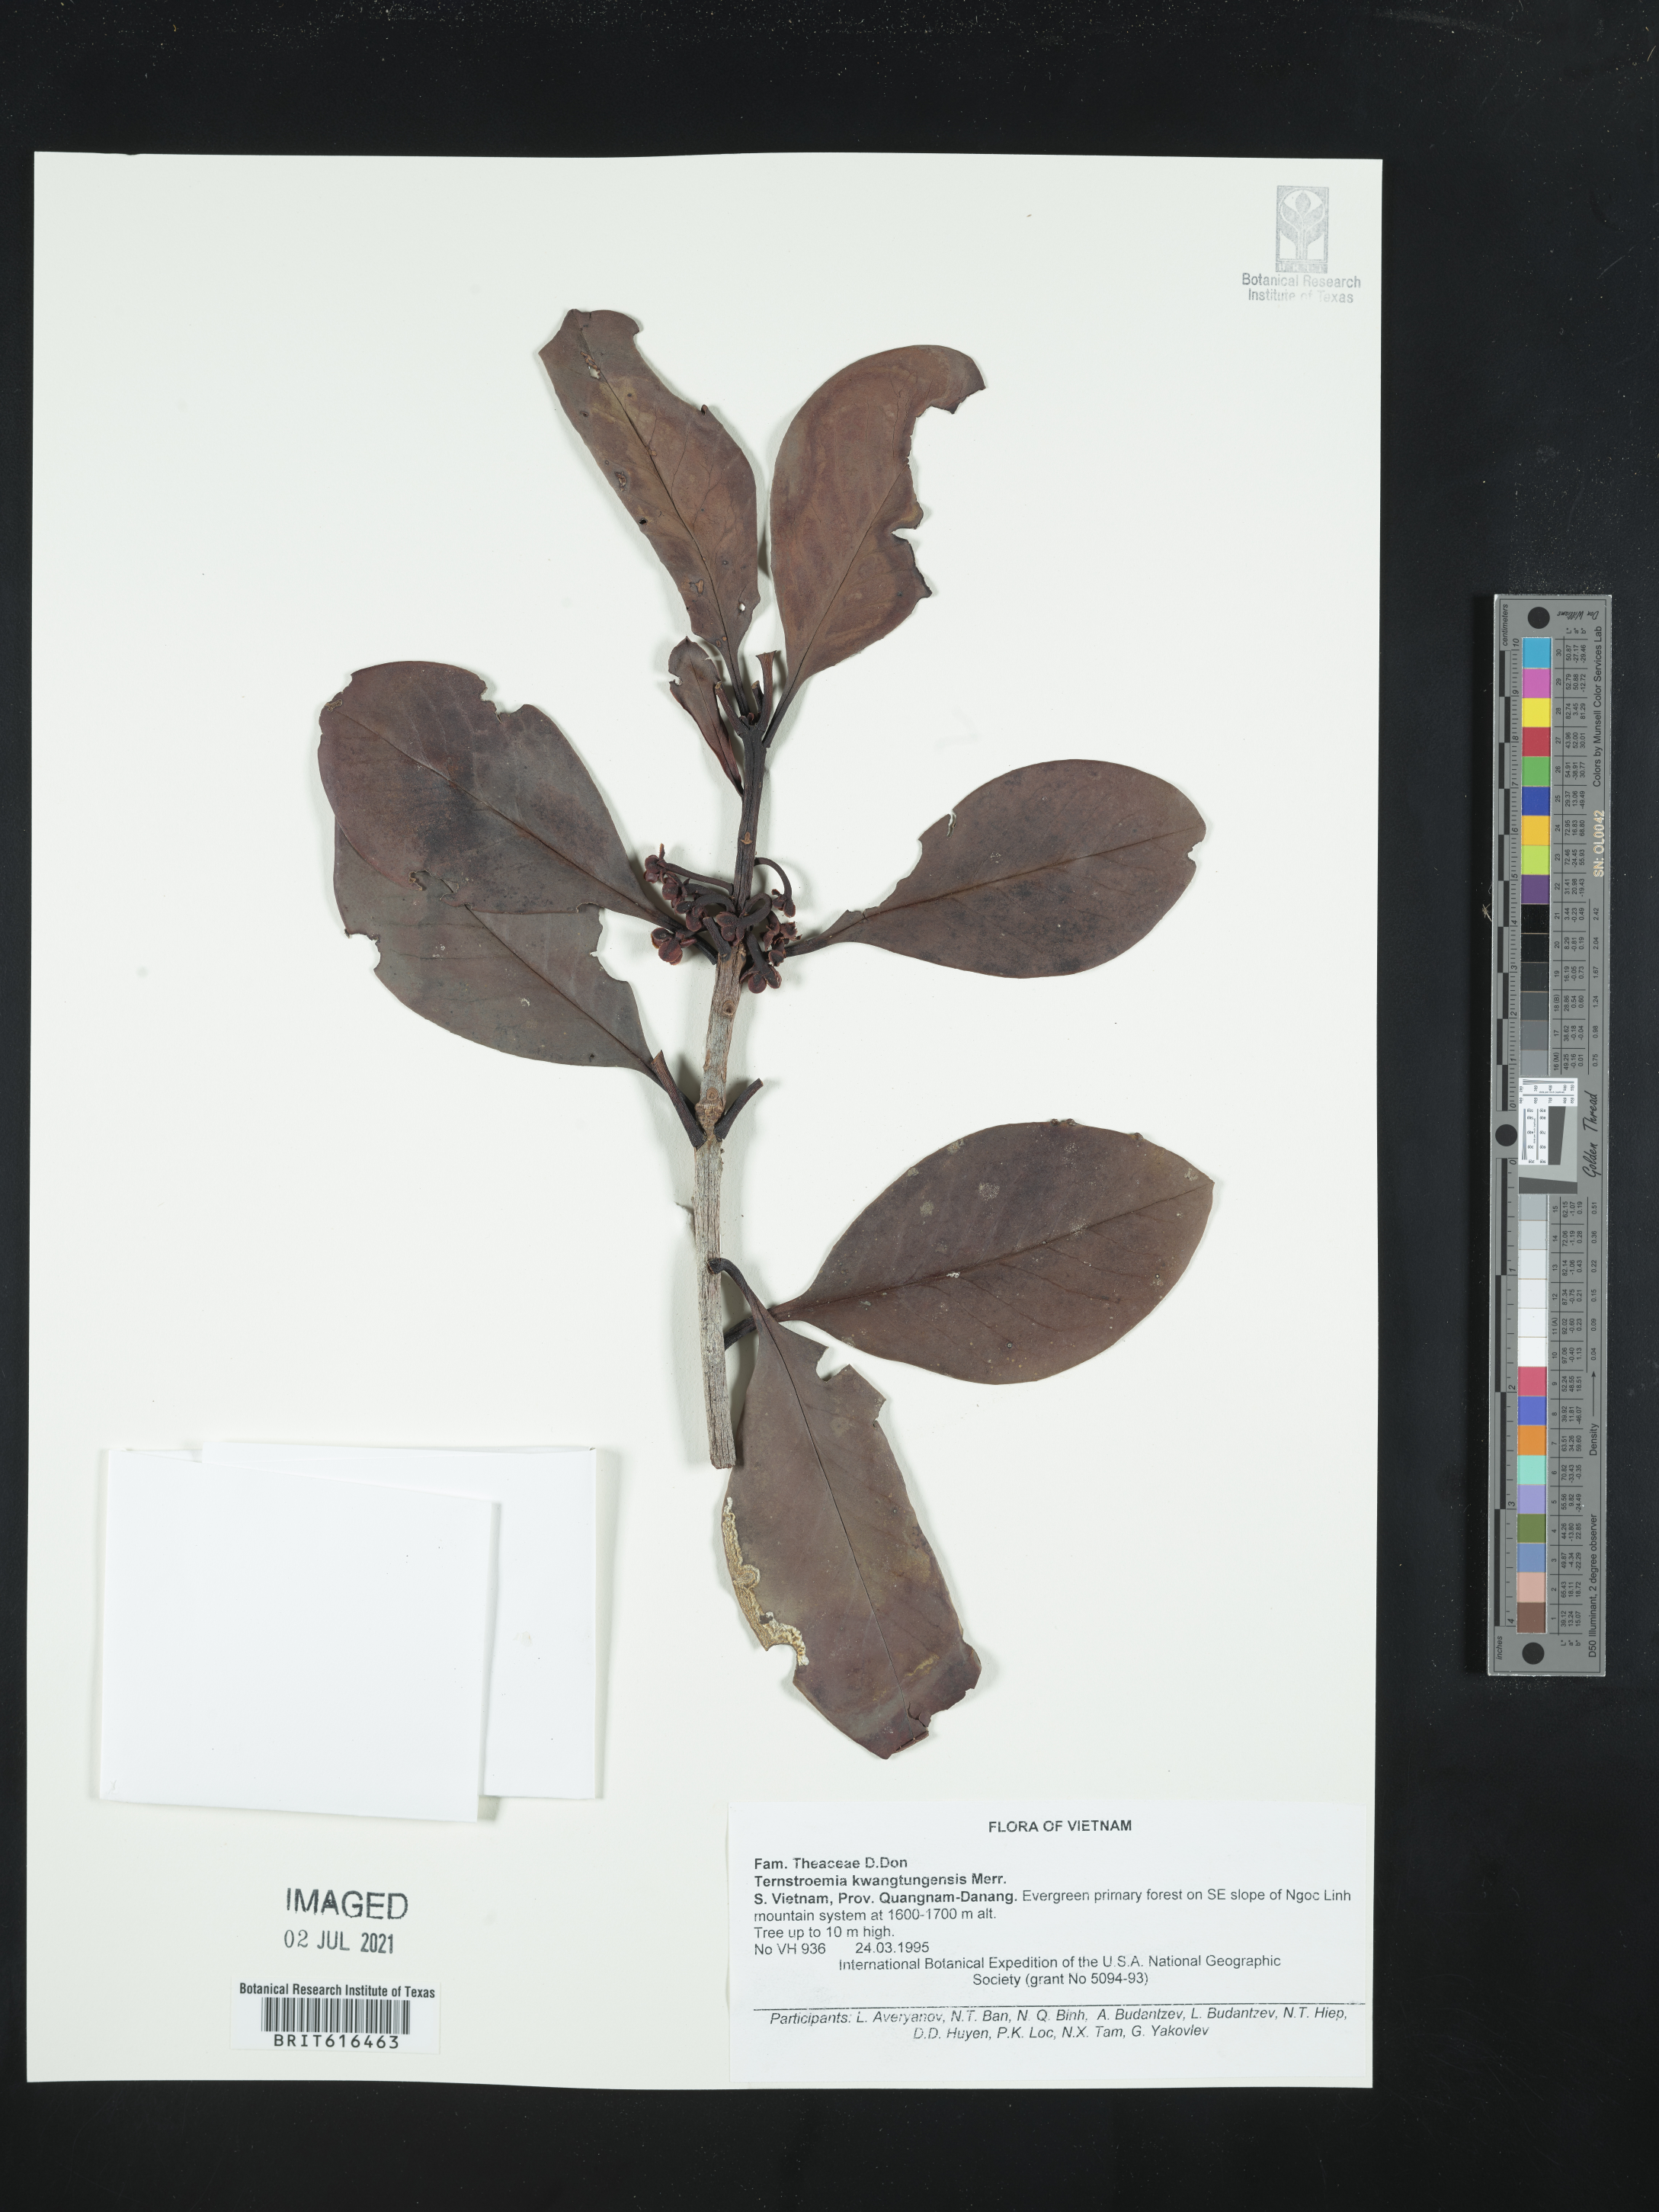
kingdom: Plantae
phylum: Tracheophyta
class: Magnoliopsida
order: Ericales
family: Pentaphylacaceae
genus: Ternstroemia
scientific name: Ternstroemia kwangtungensis
